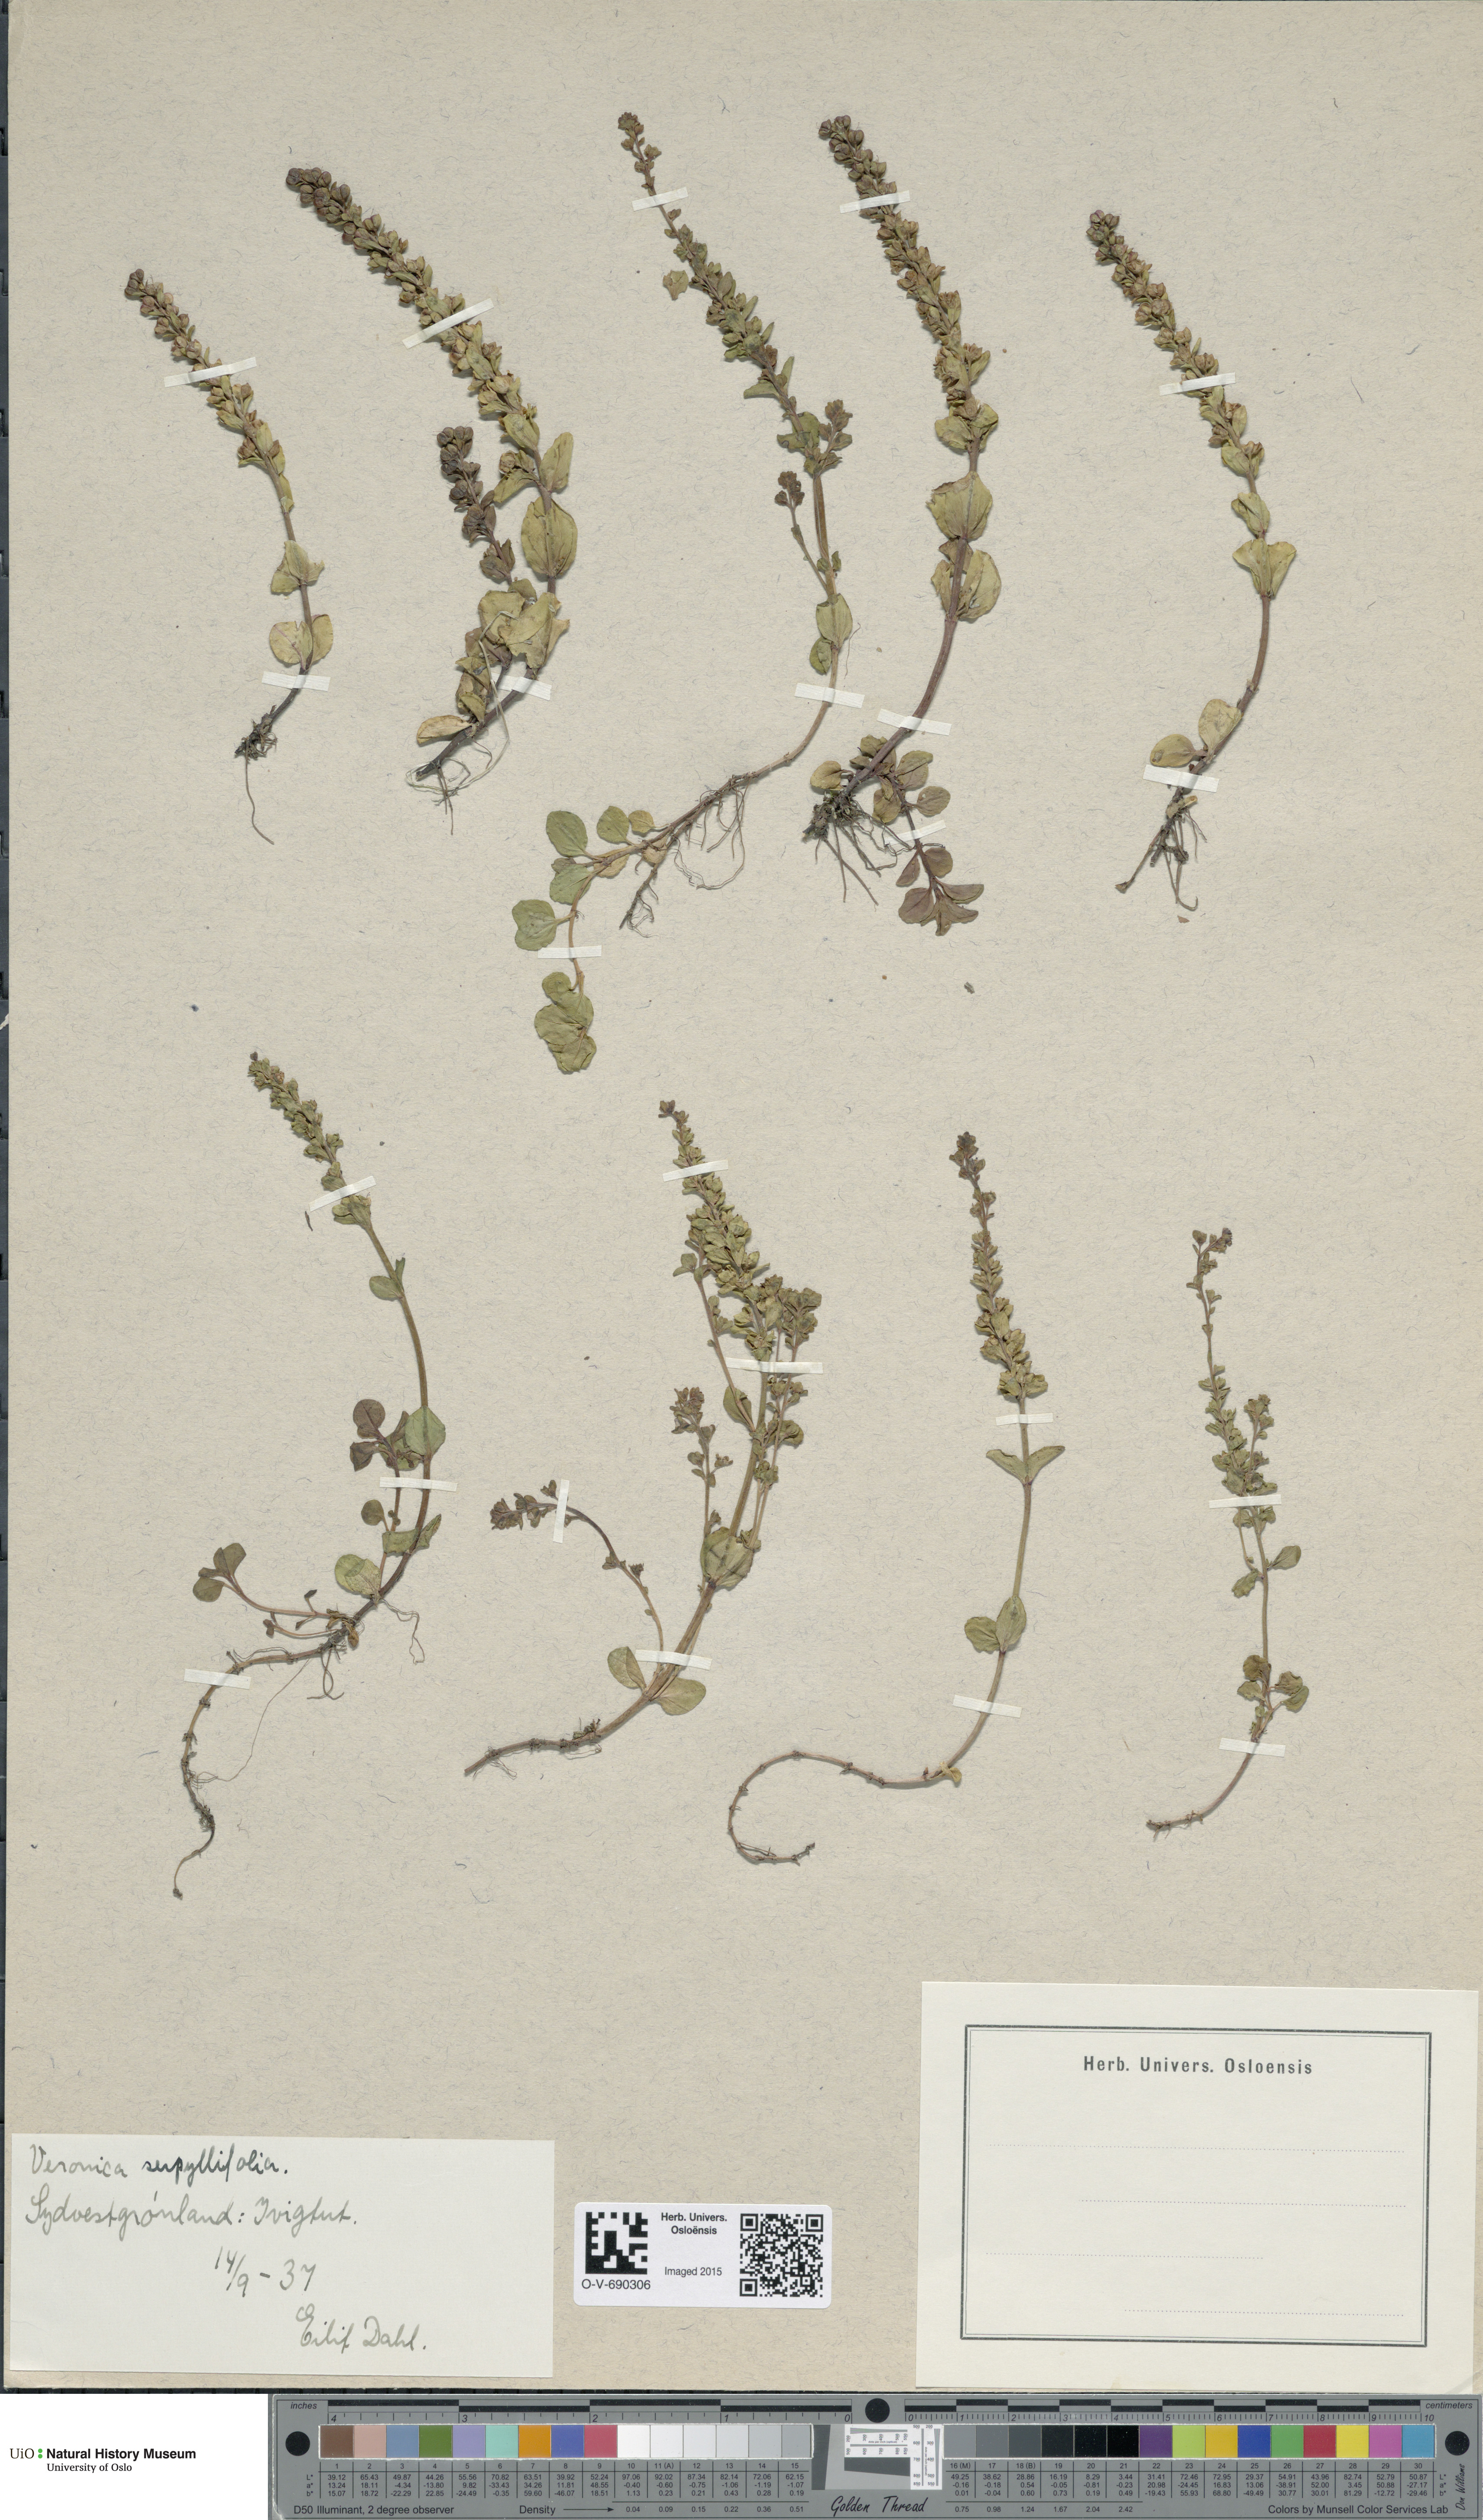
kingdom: Plantae
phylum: Tracheophyta
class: Magnoliopsida
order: Lamiales
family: Plantaginaceae
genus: Veronica
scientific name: Veronica serpyllifolia
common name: Thyme-leaved speedwell
